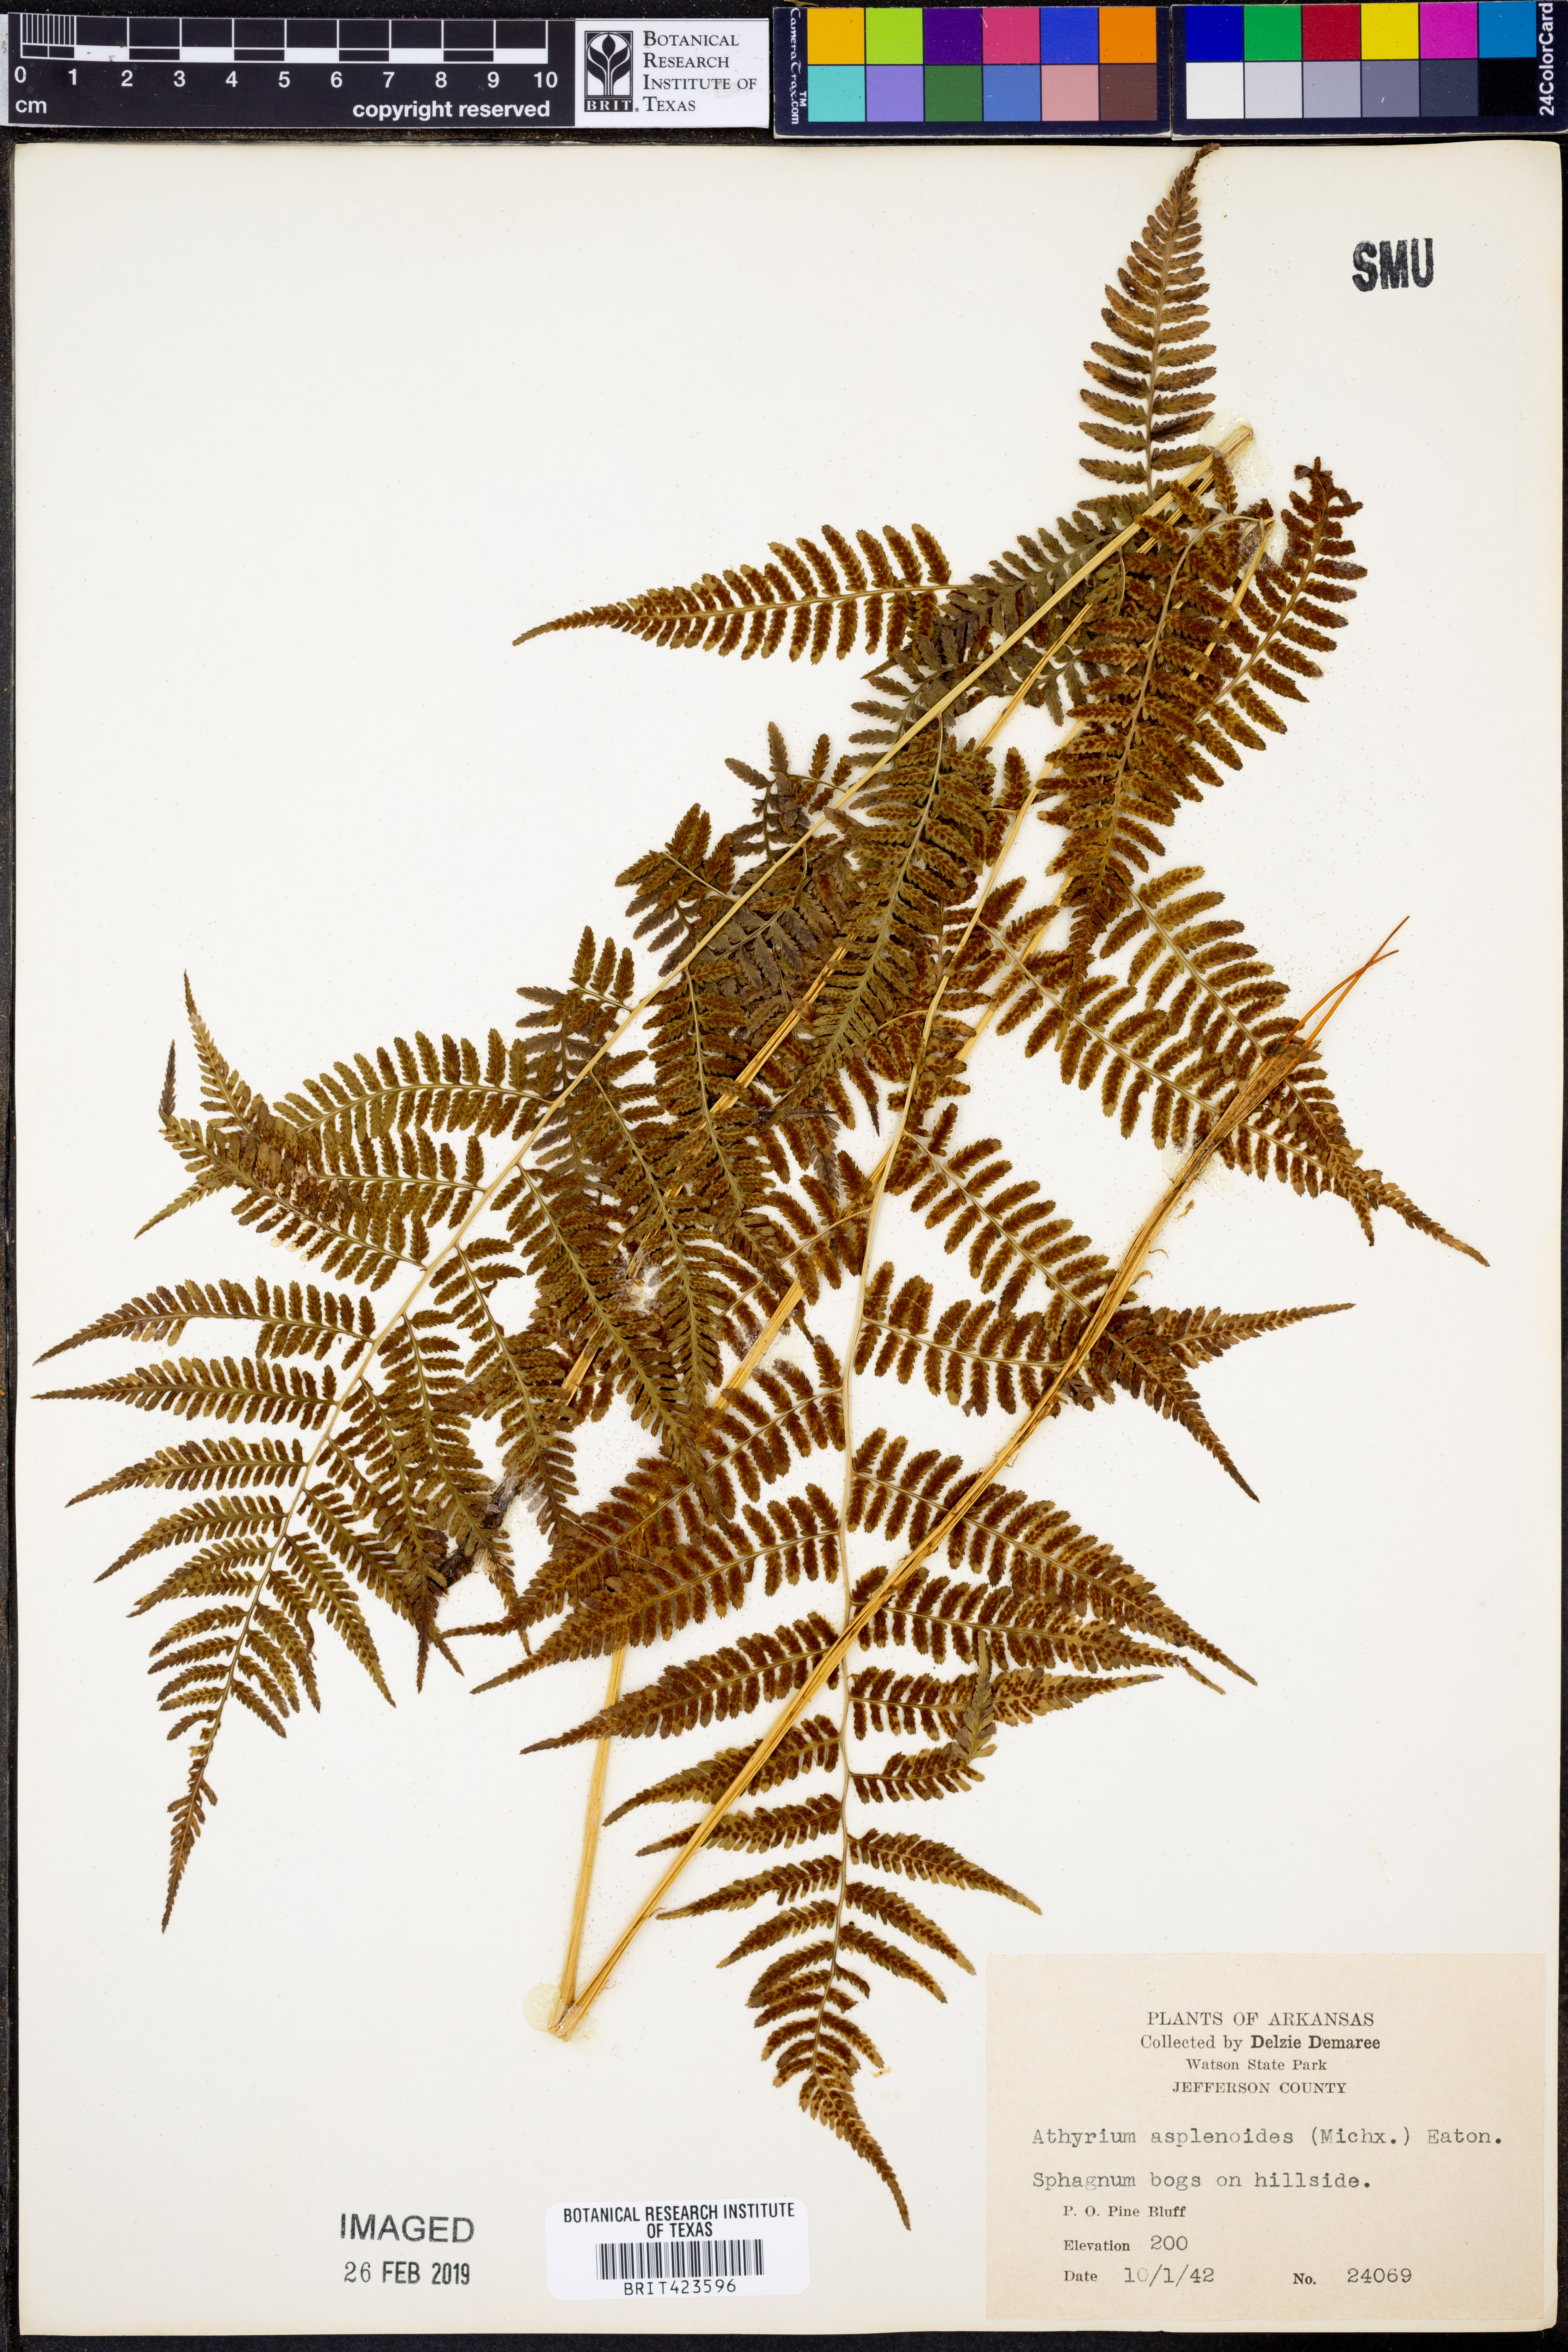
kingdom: Plantae
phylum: Tracheophyta
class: Polypodiopsida
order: Polypodiales
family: Athyriaceae
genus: Athyrium
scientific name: Athyrium asplenoides
